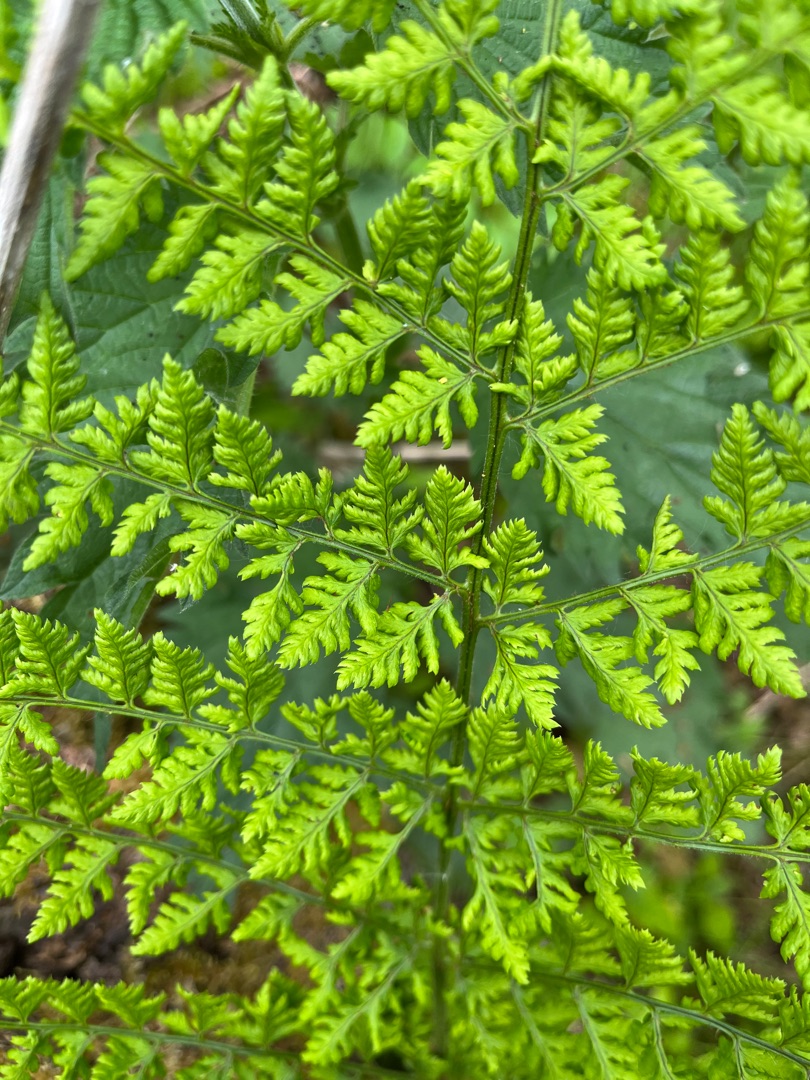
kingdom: Plantae
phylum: Tracheophyta
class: Polypodiopsida
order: Polypodiales
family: Dryopteridaceae
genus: Dryopteris
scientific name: Dryopteris dilatata
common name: Bredbladet mangeløv
